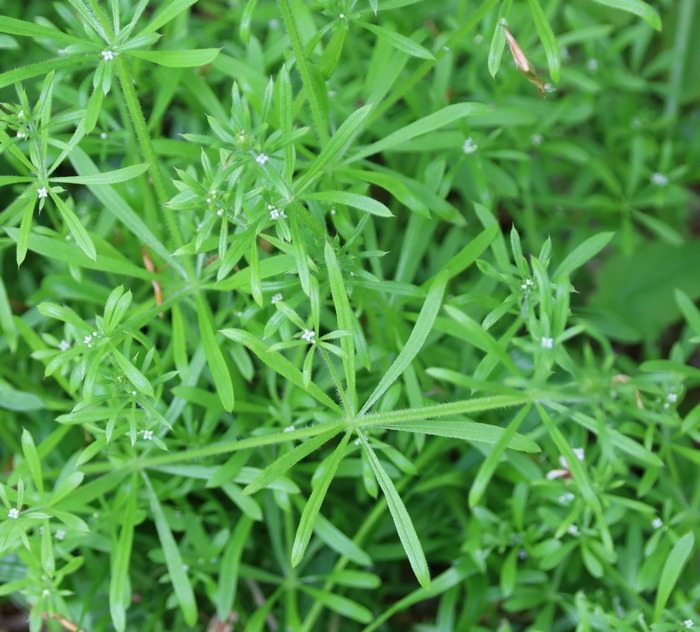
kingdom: Plantae
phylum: Tracheophyta
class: Magnoliopsida
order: Gentianales
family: Rubiaceae
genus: Galium
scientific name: Galium aparine
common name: Burre-snerre
